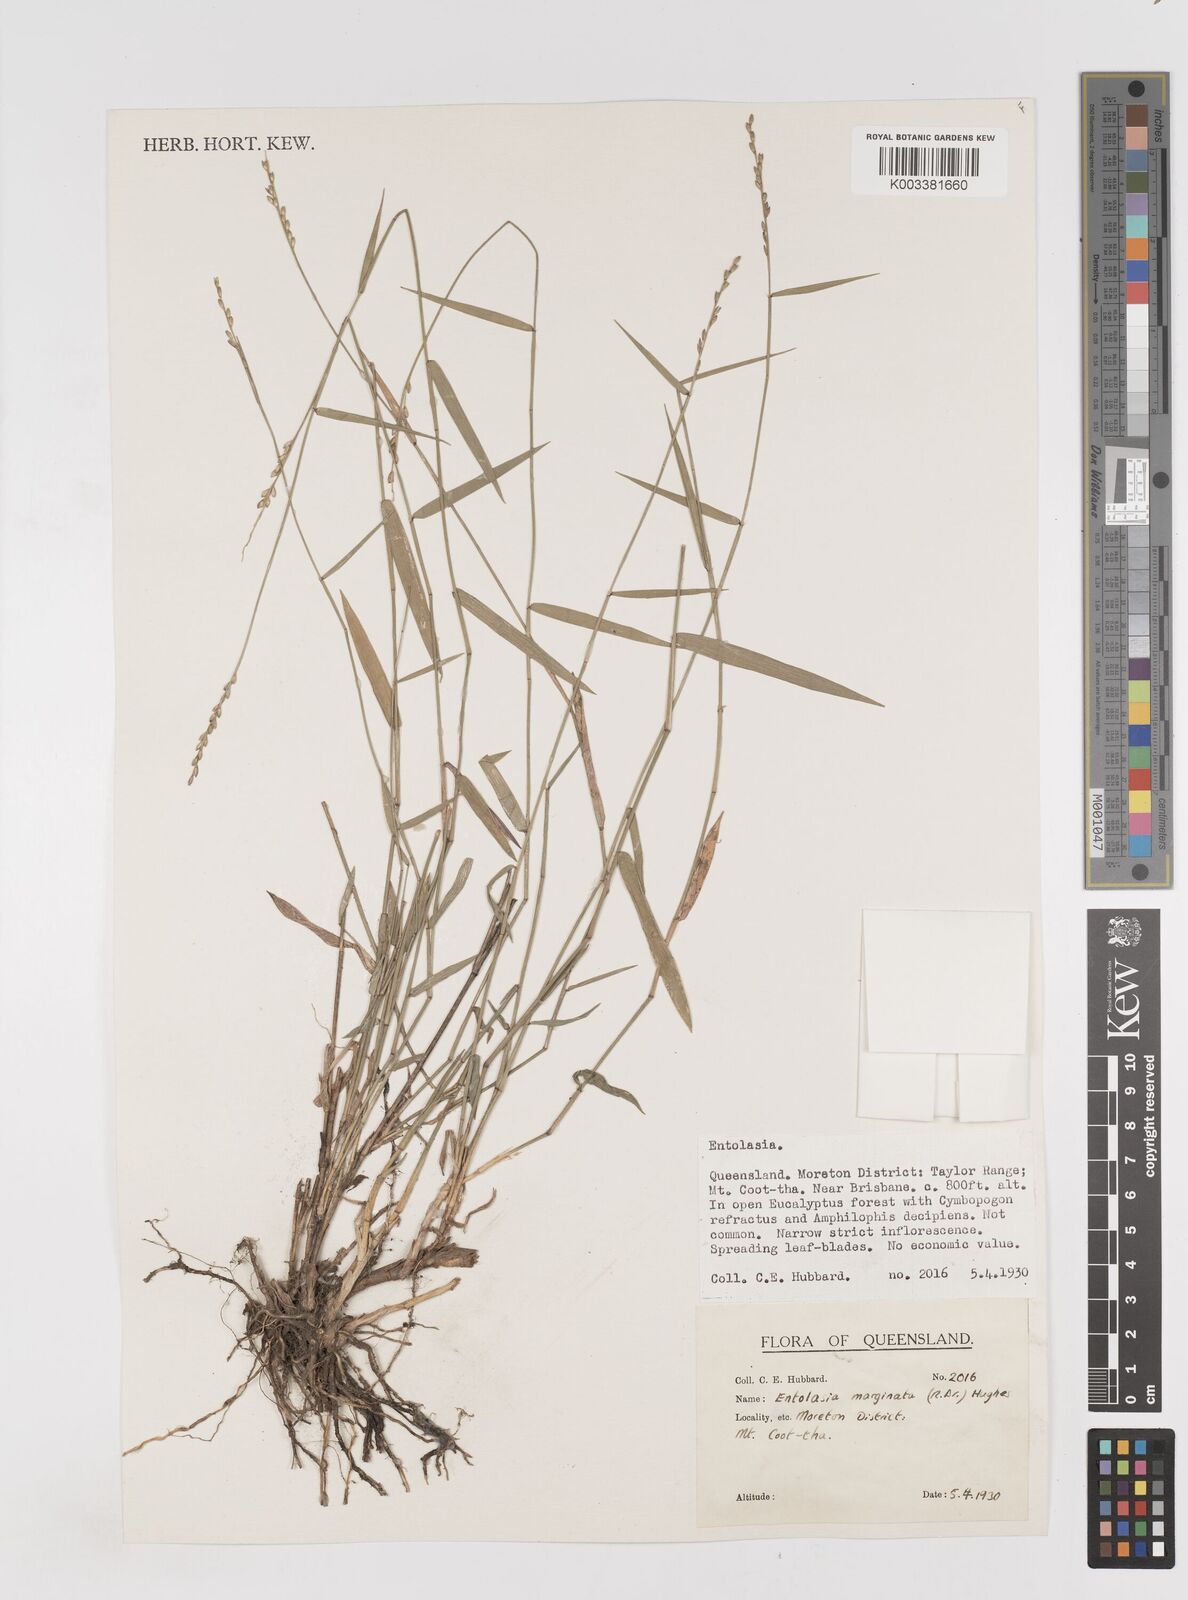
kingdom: Plantae
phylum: Tracheophyta
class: Liliopsida
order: Poales
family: Poaceae
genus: Entolasia
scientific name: Entolasia marginata
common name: Australian panicgrass
